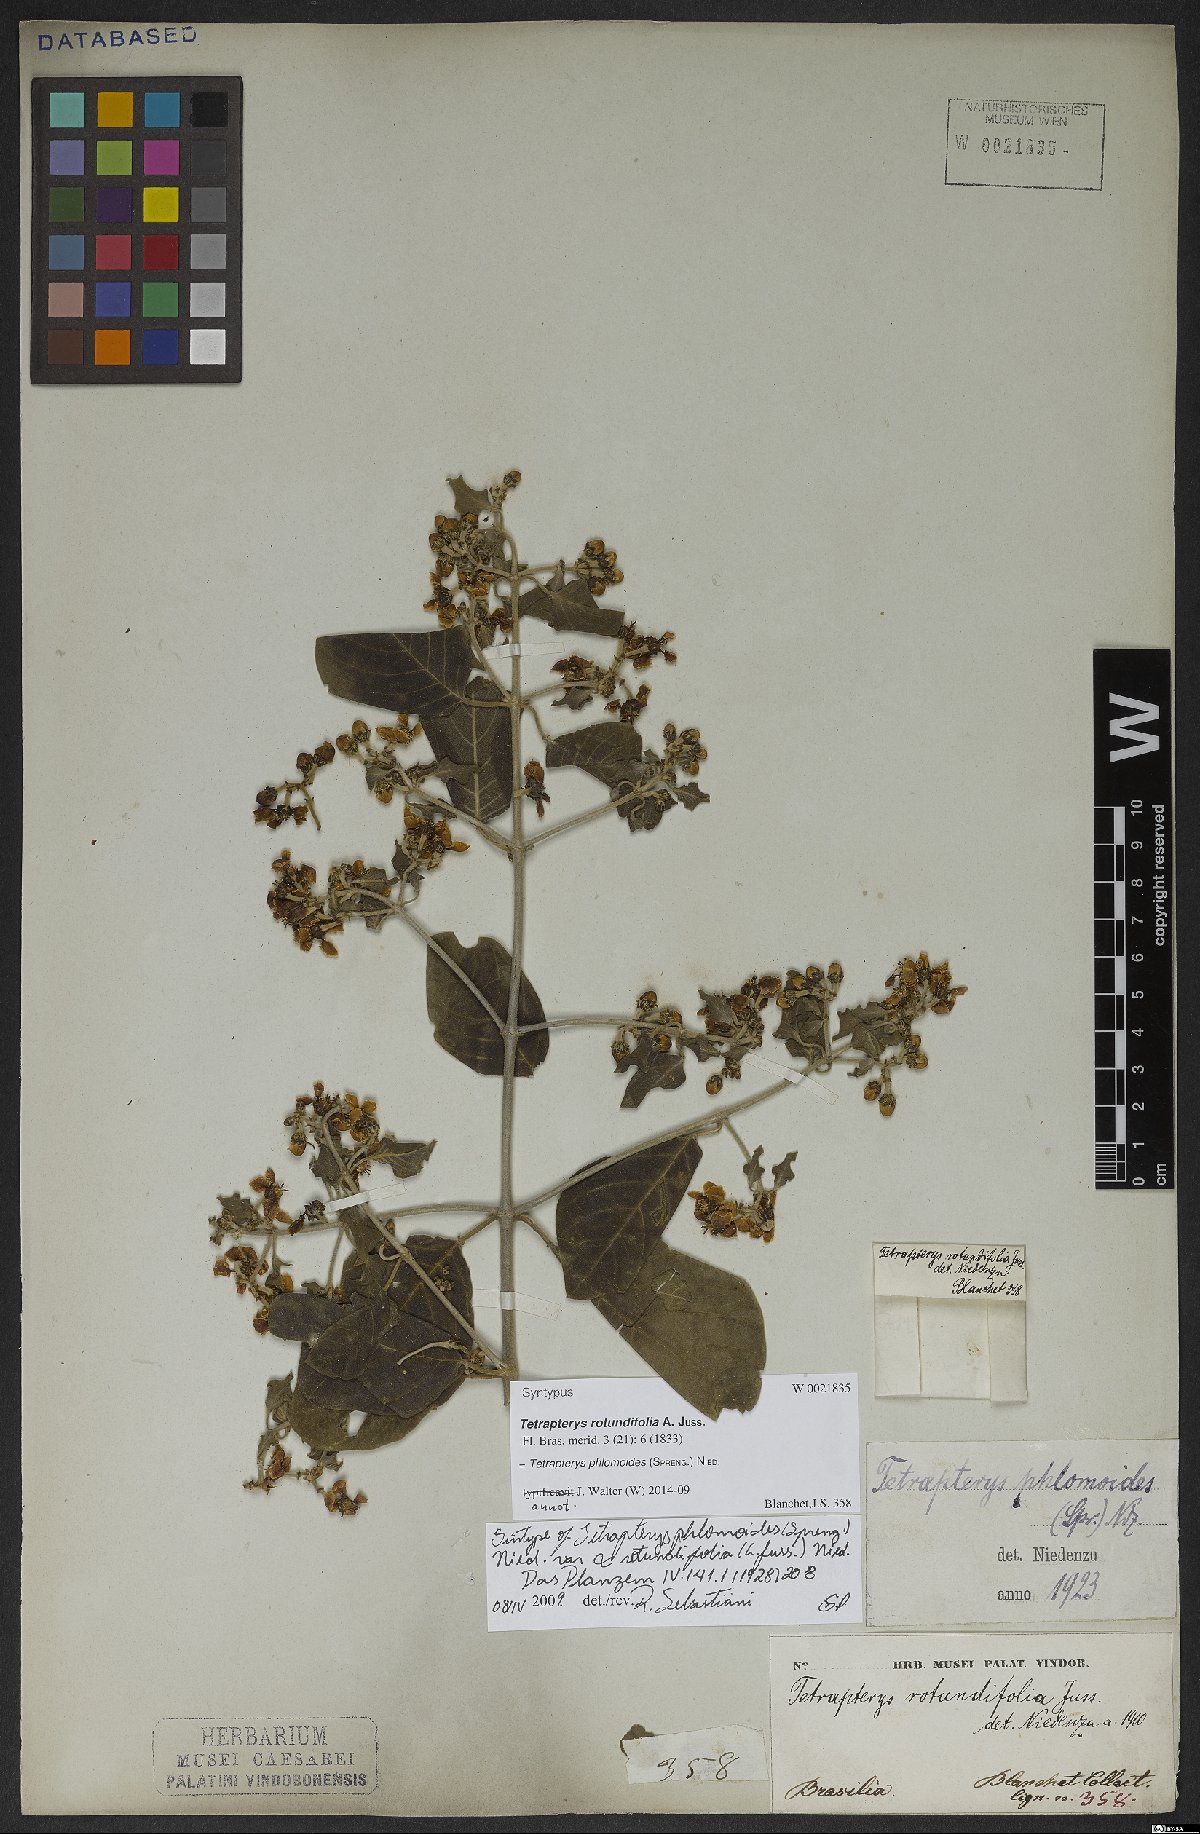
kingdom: Plantae
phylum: Tracheophyta
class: Magnoliopsida
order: Malpighiales
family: Malpighiaceae
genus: Tetrapterys
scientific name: Tetrapterys phlomoides
